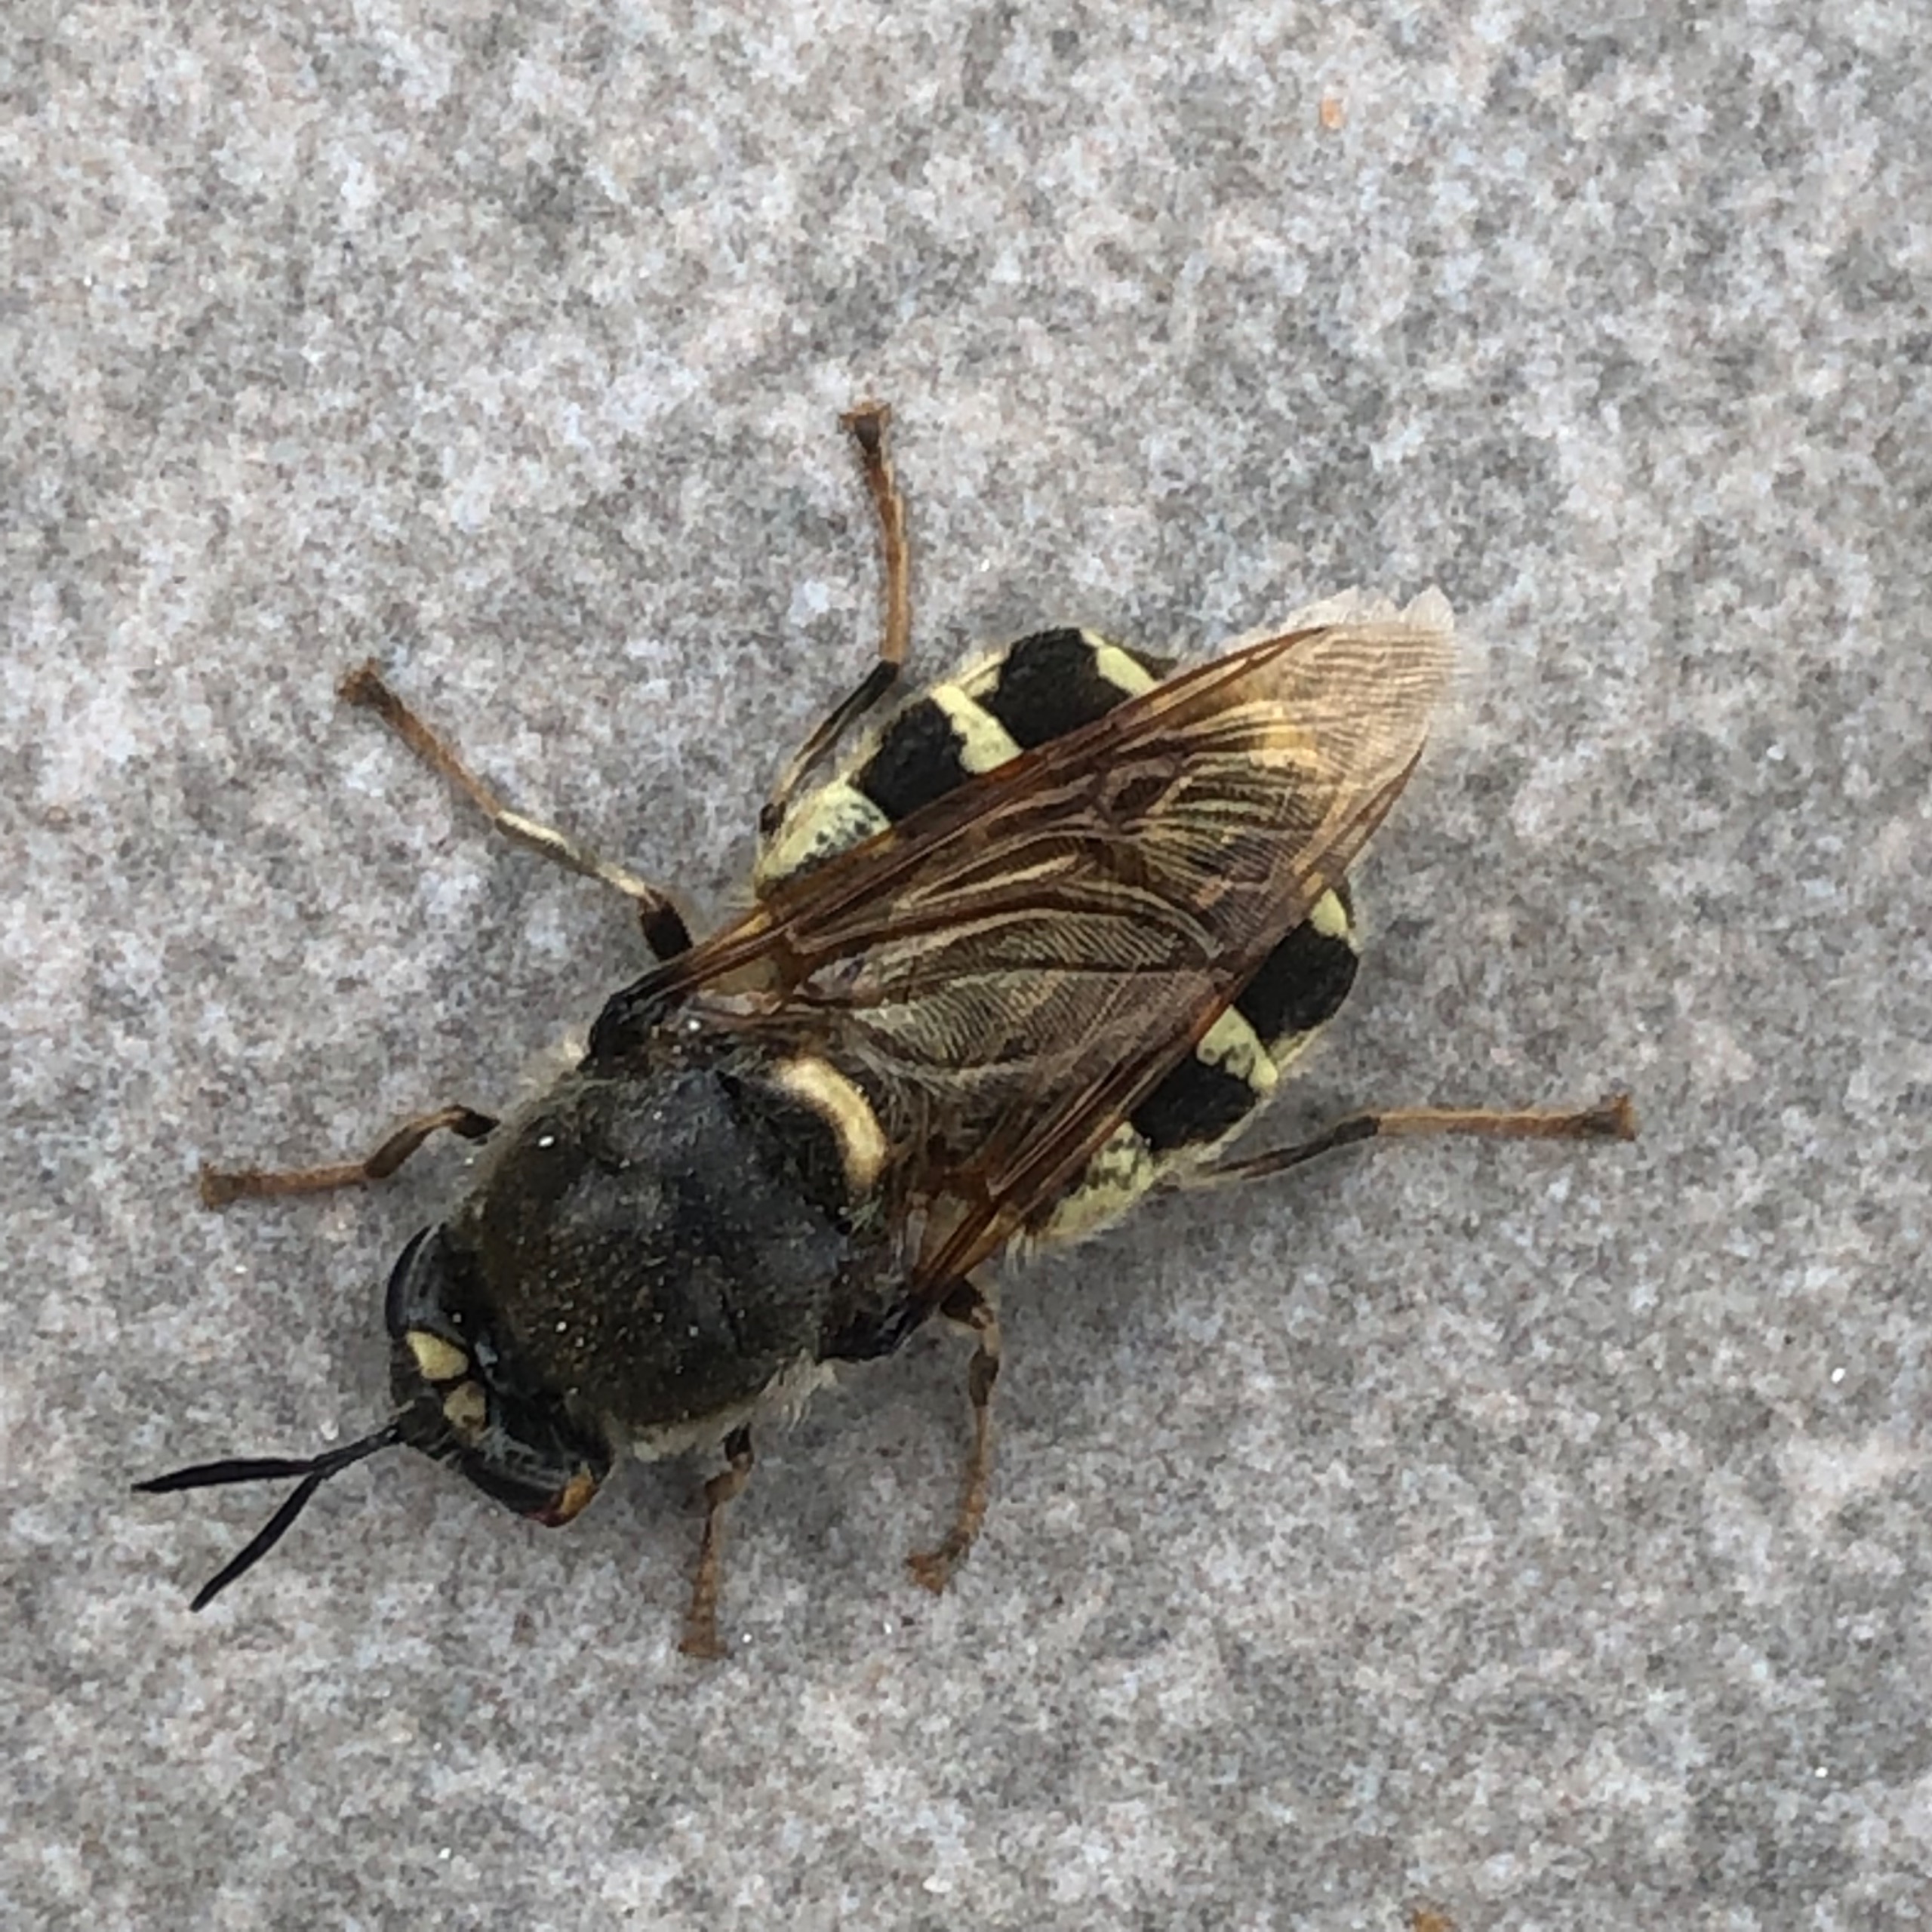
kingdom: Animalia
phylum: Arthropoda
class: Insecta
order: Diptera
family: Stratiomyidae
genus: Stratiomys
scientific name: Stratiomys singularior
